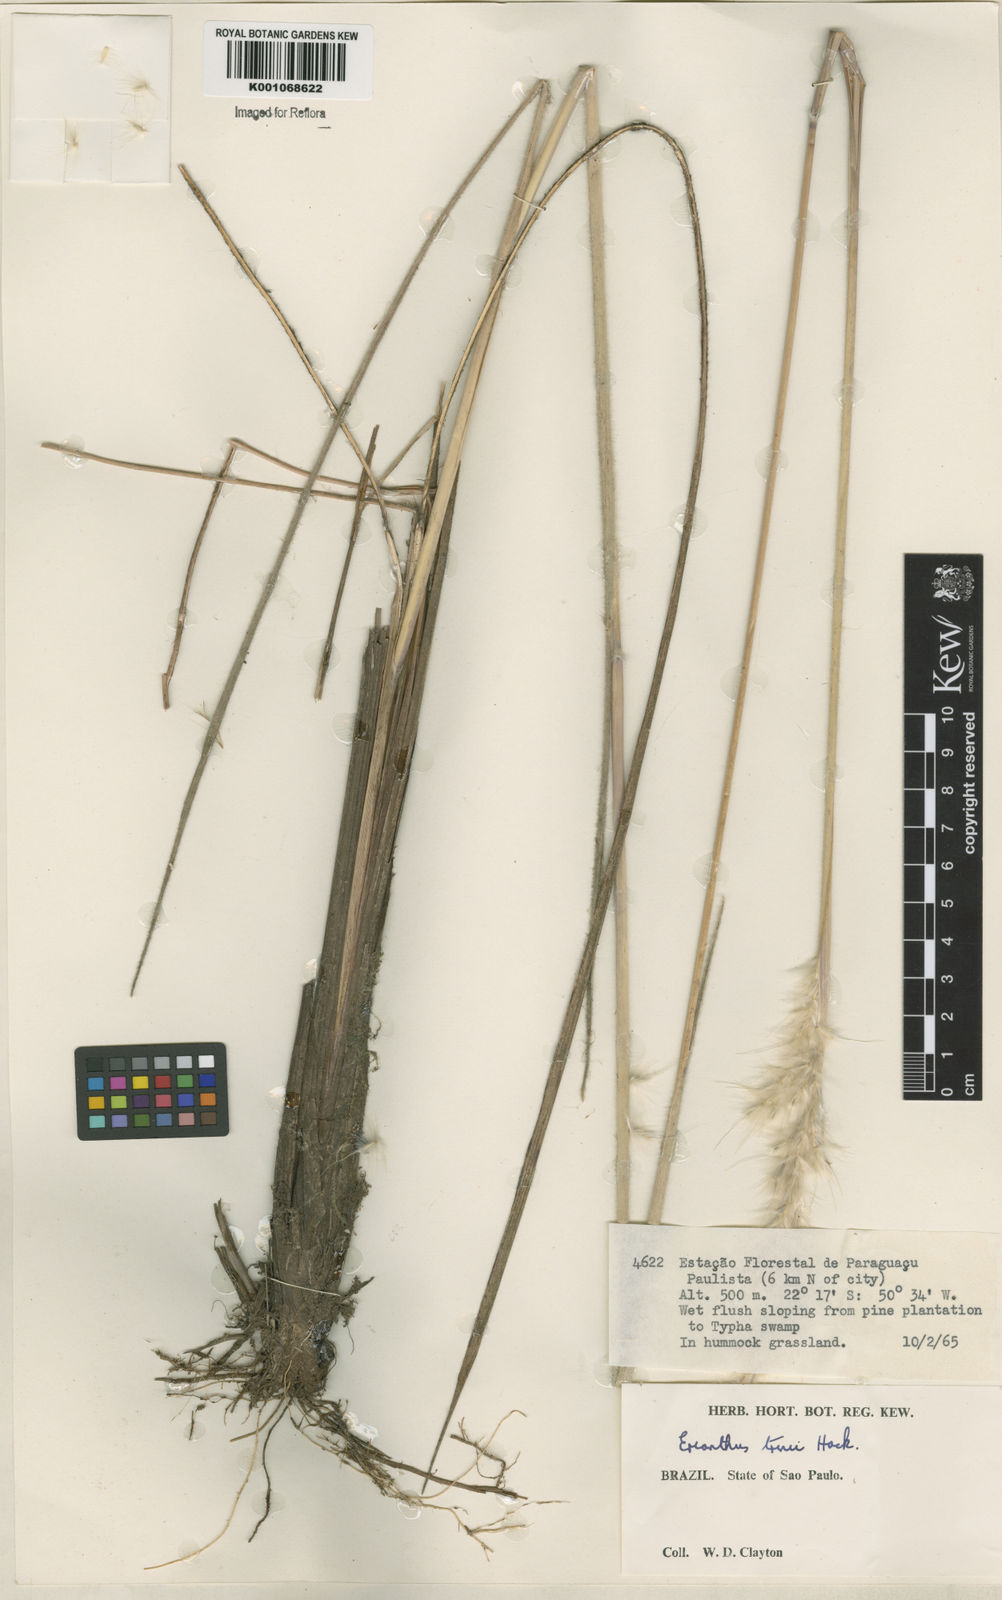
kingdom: Plantae
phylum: Tracheophyta
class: Liliopsida
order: Poales
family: Poaceae
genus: Saccharum
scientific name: Saccharum angustifolium
